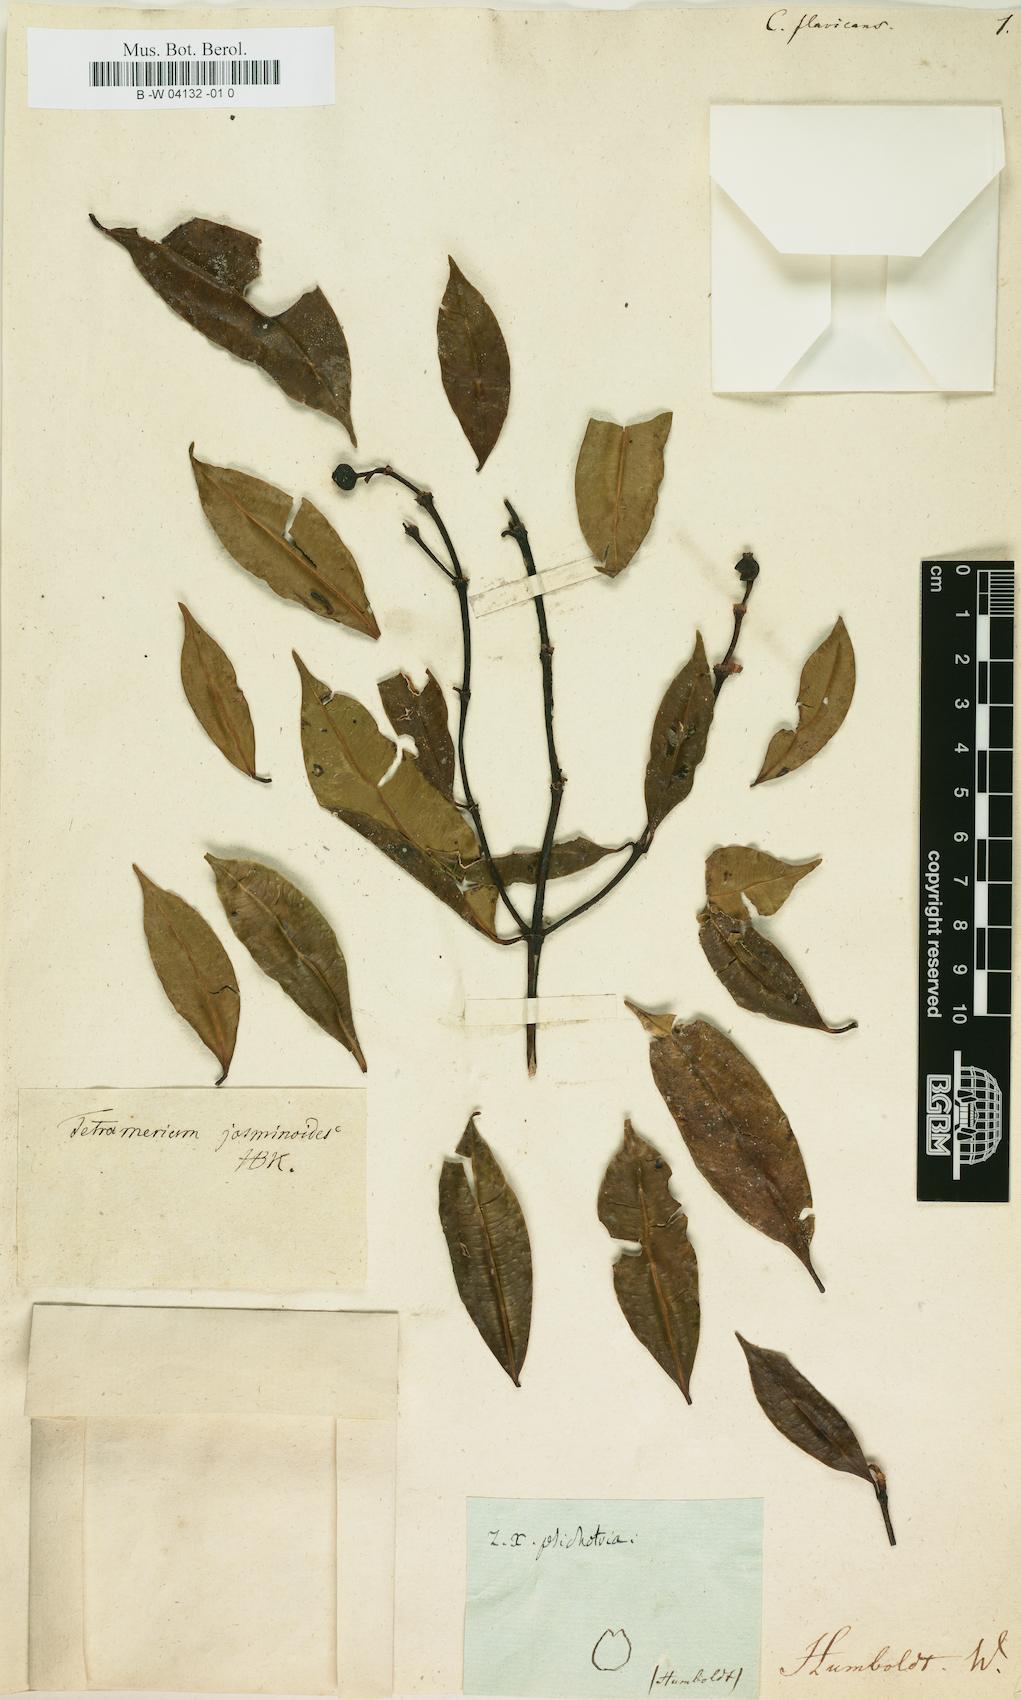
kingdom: Plantae
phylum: Tracheophyta
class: Magnoliopsida
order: Gentianales
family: Rubiaceae
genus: Faramea
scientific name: Faramea jasminoides
